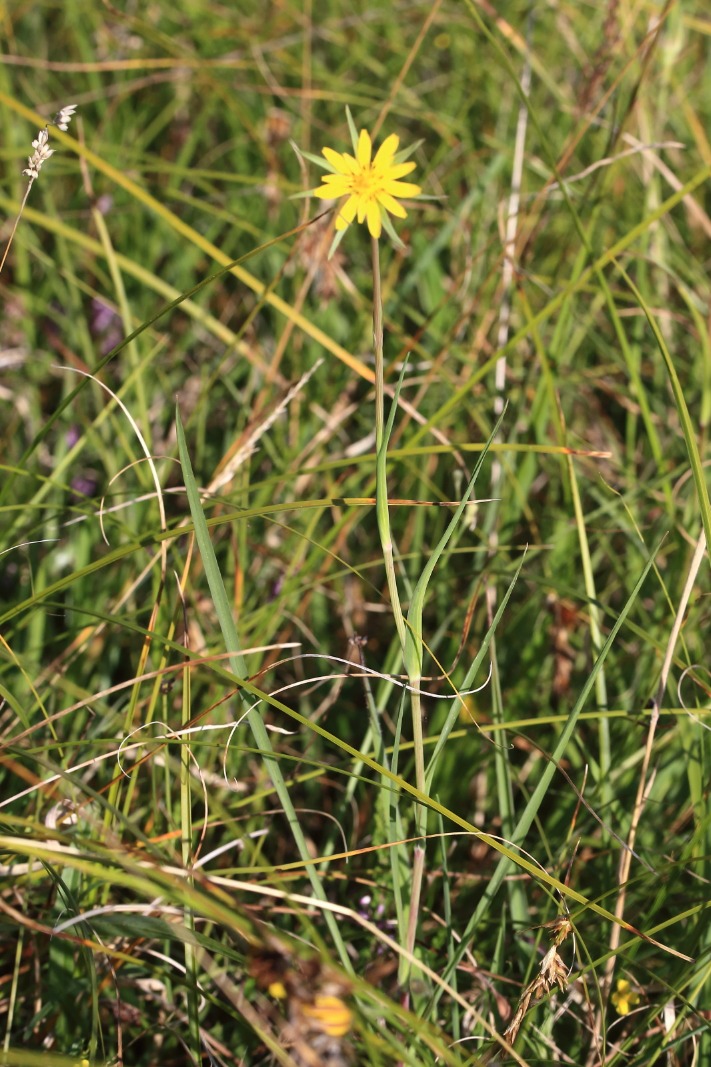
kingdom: Plantae
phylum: Tracheophyta
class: Magnoliopsida
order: Asterales
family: Asteraceae
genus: Tragopogon
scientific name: Tragopogon minor
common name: Småkronet gedeskæg
